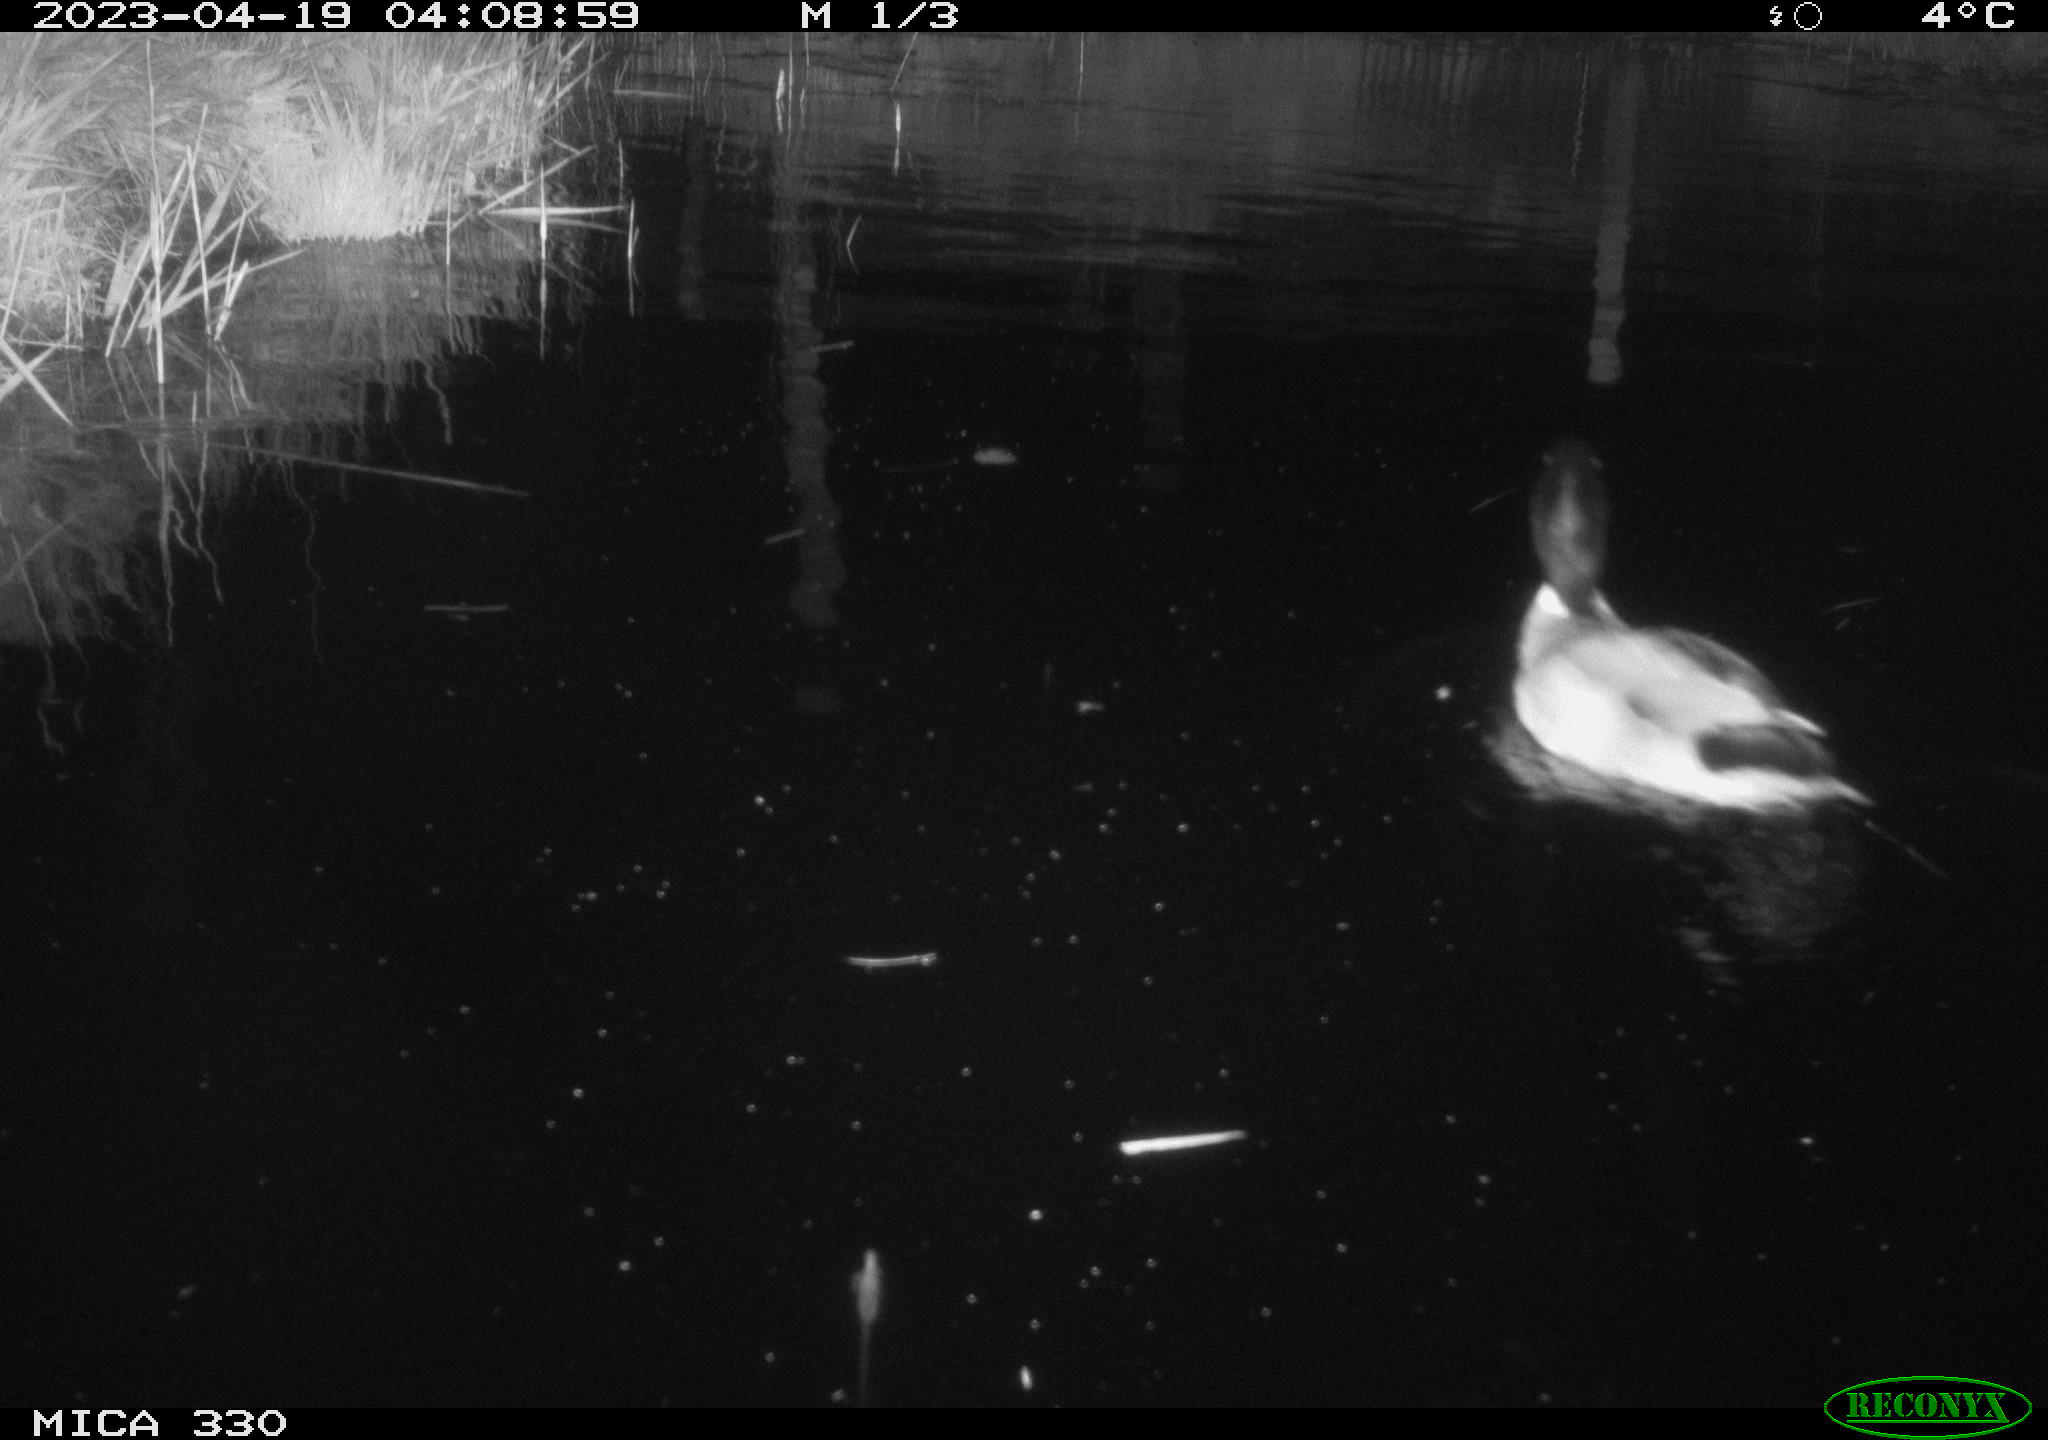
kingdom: Animalia
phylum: Chordata
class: Aves
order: Anseriformes
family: Anatidae
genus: Anas
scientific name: Anas
